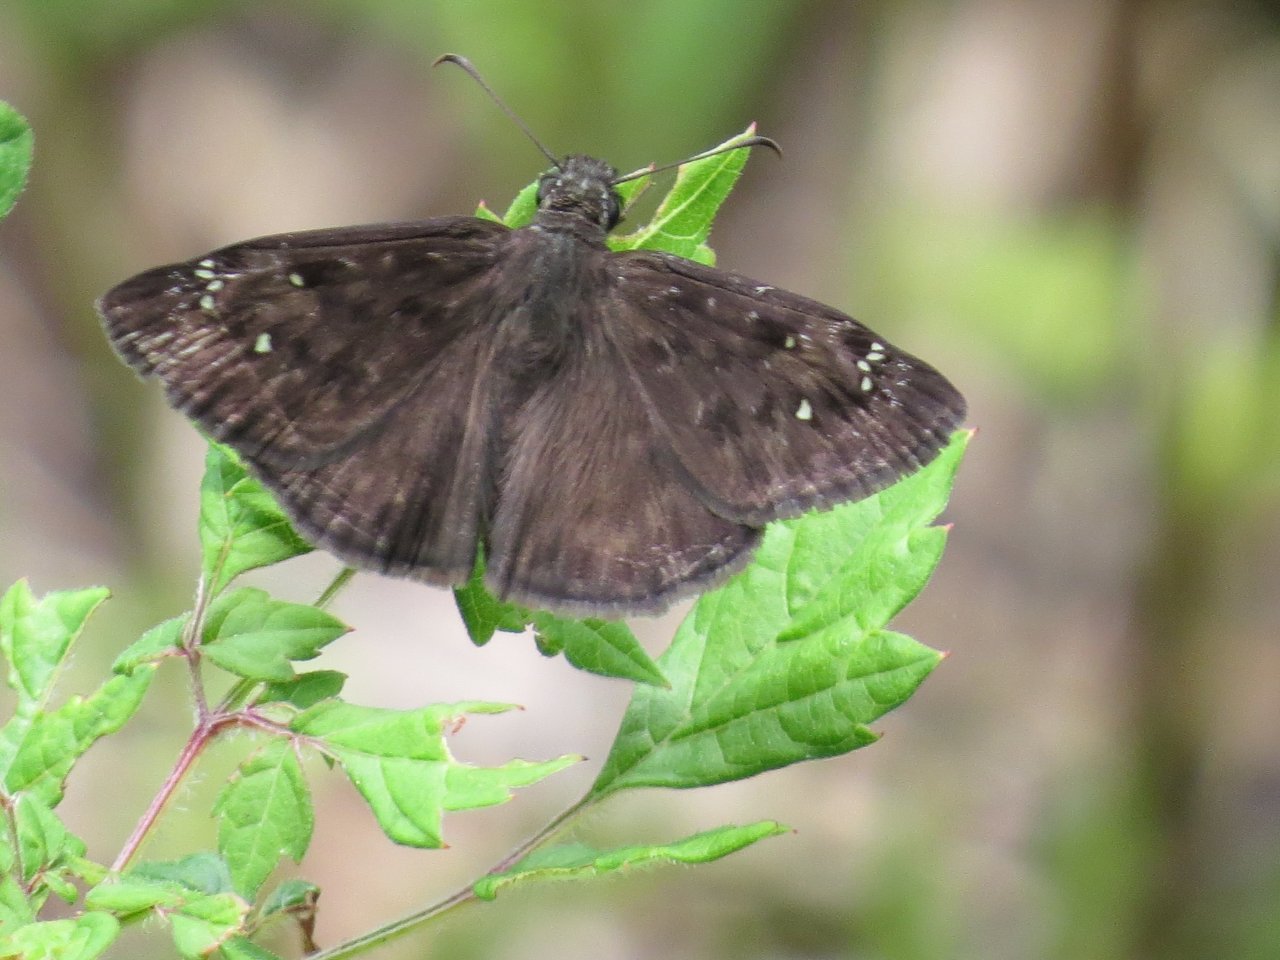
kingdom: Animalia
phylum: Arthropoda
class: Insecta
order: Lepidoptera
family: Hesperiidae
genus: Gesta
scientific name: Gesta
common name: Horace's Duskywing
